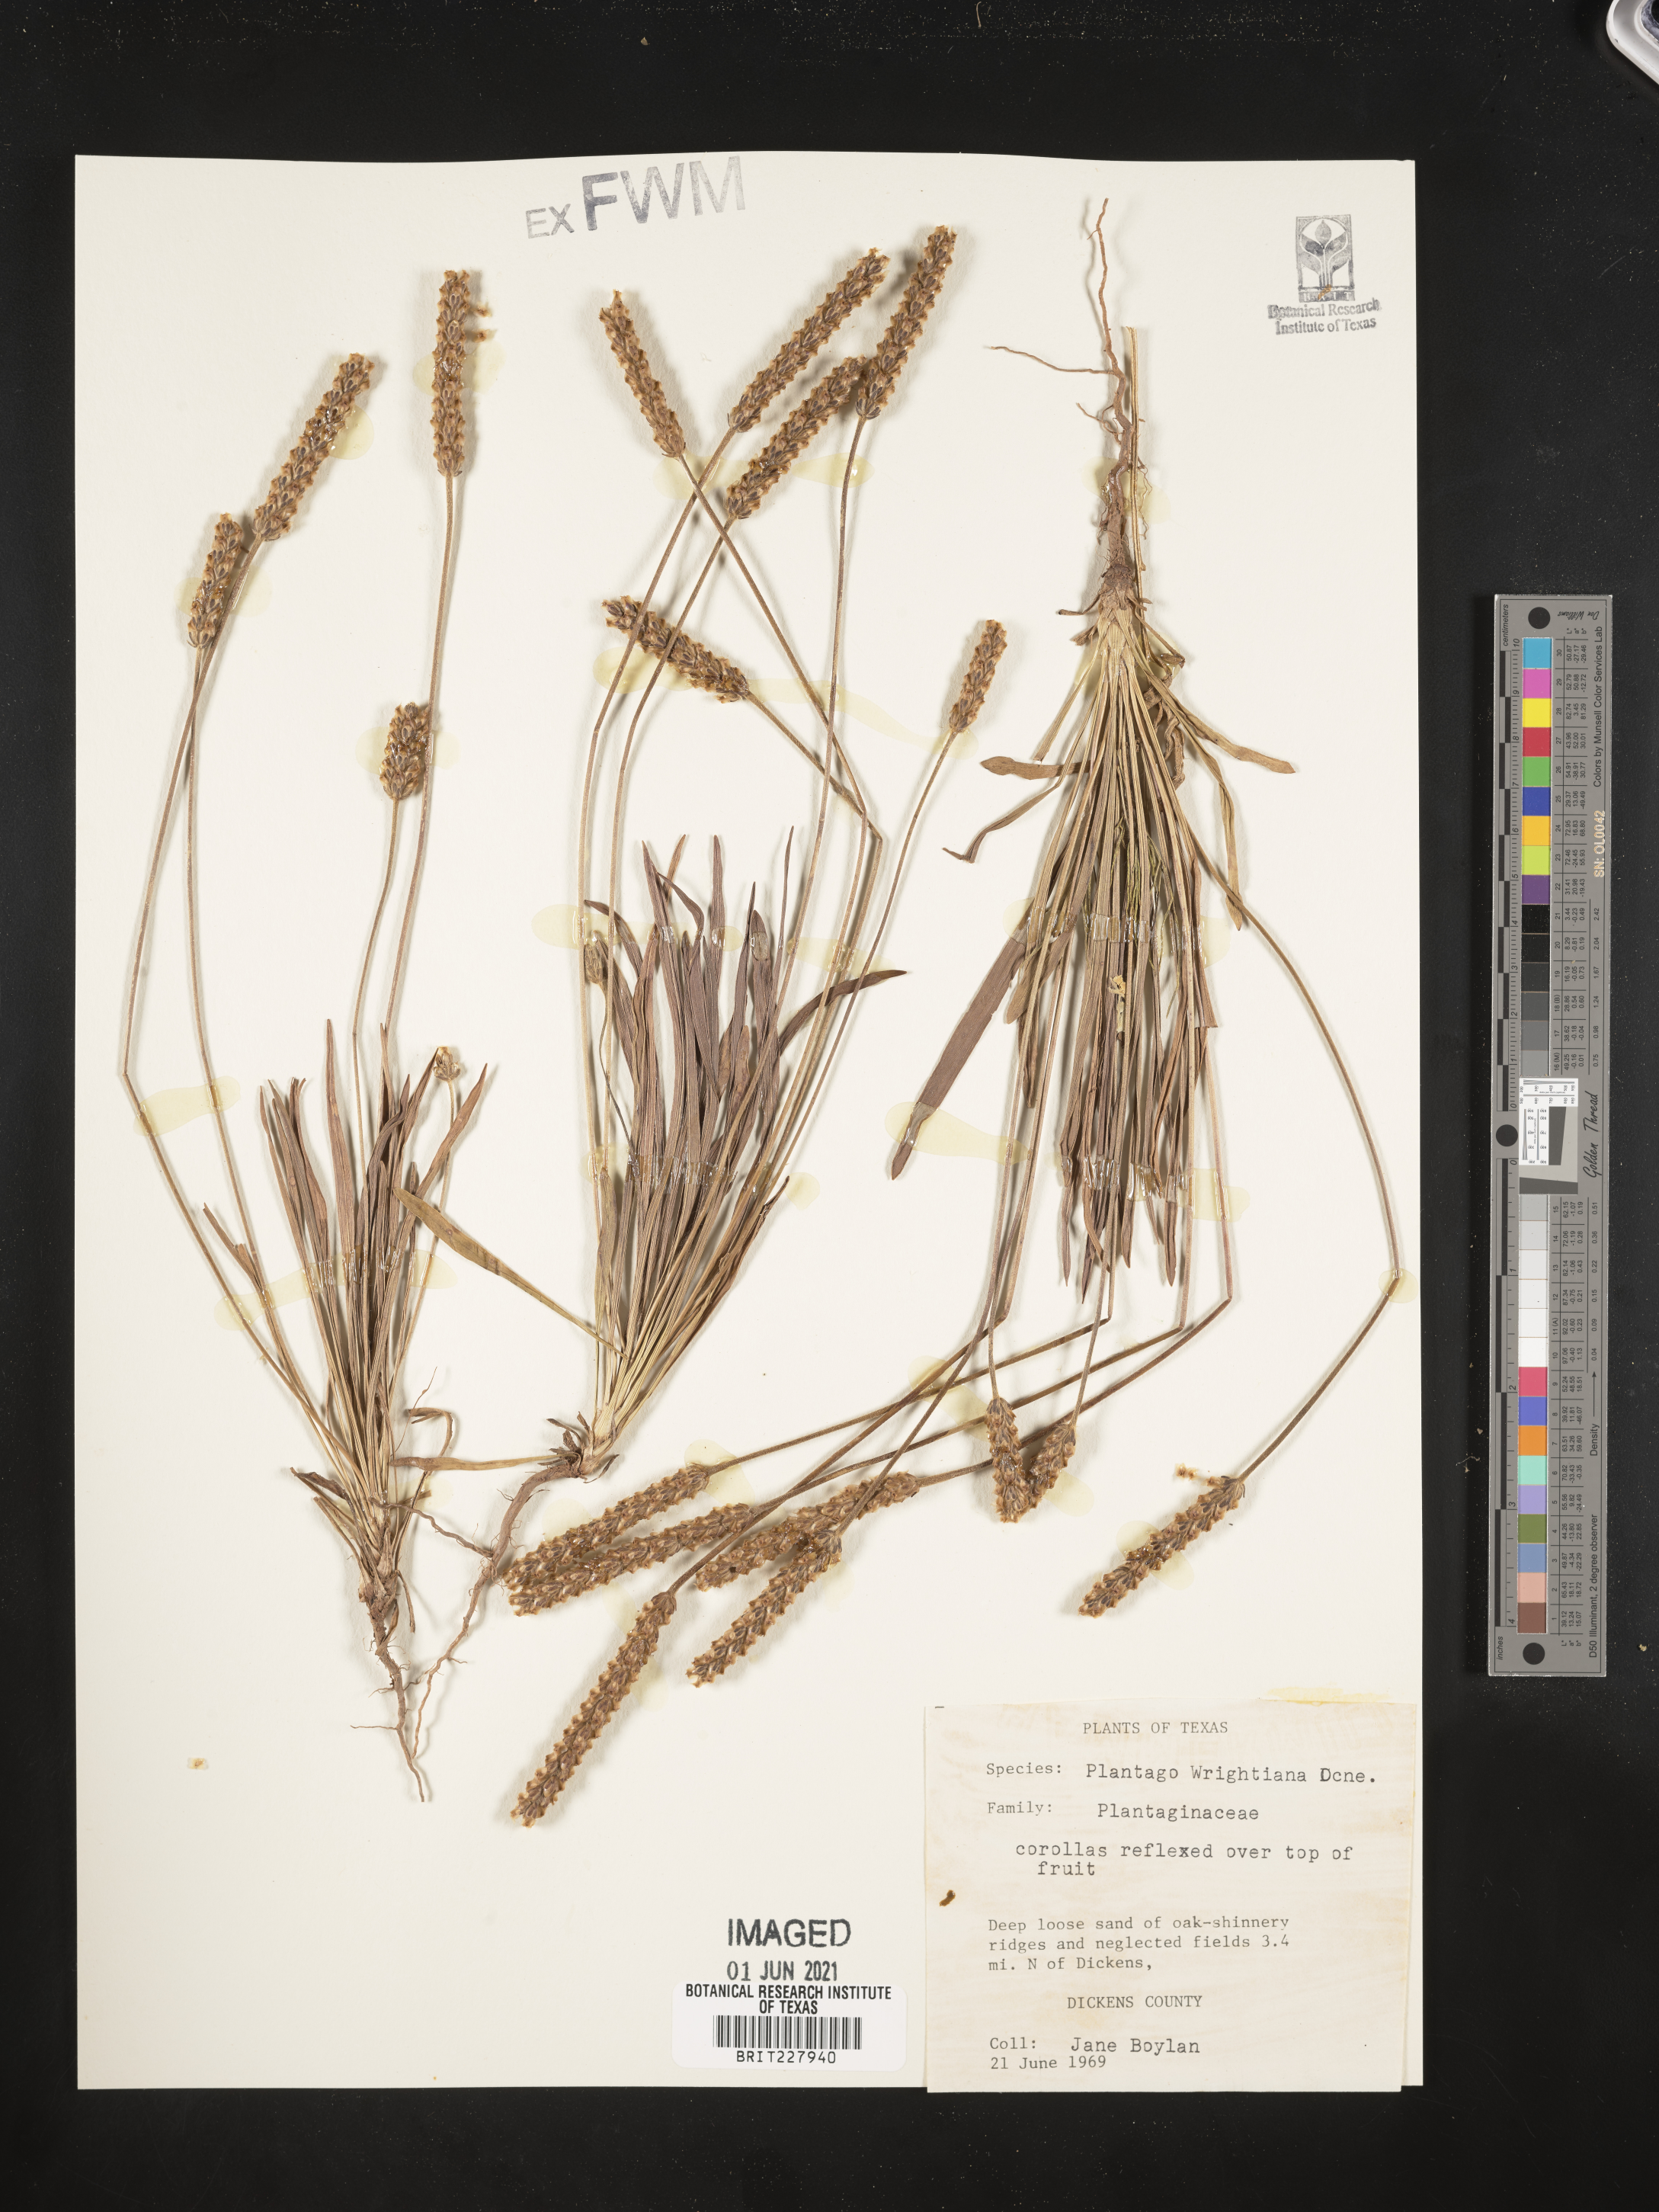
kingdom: Plantae
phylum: Tracheophyta
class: Magnoliopsida
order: Lamiales
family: Plantaginaceae
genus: Plantago
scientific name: Plantago wrightiana
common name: Wright's plantain
